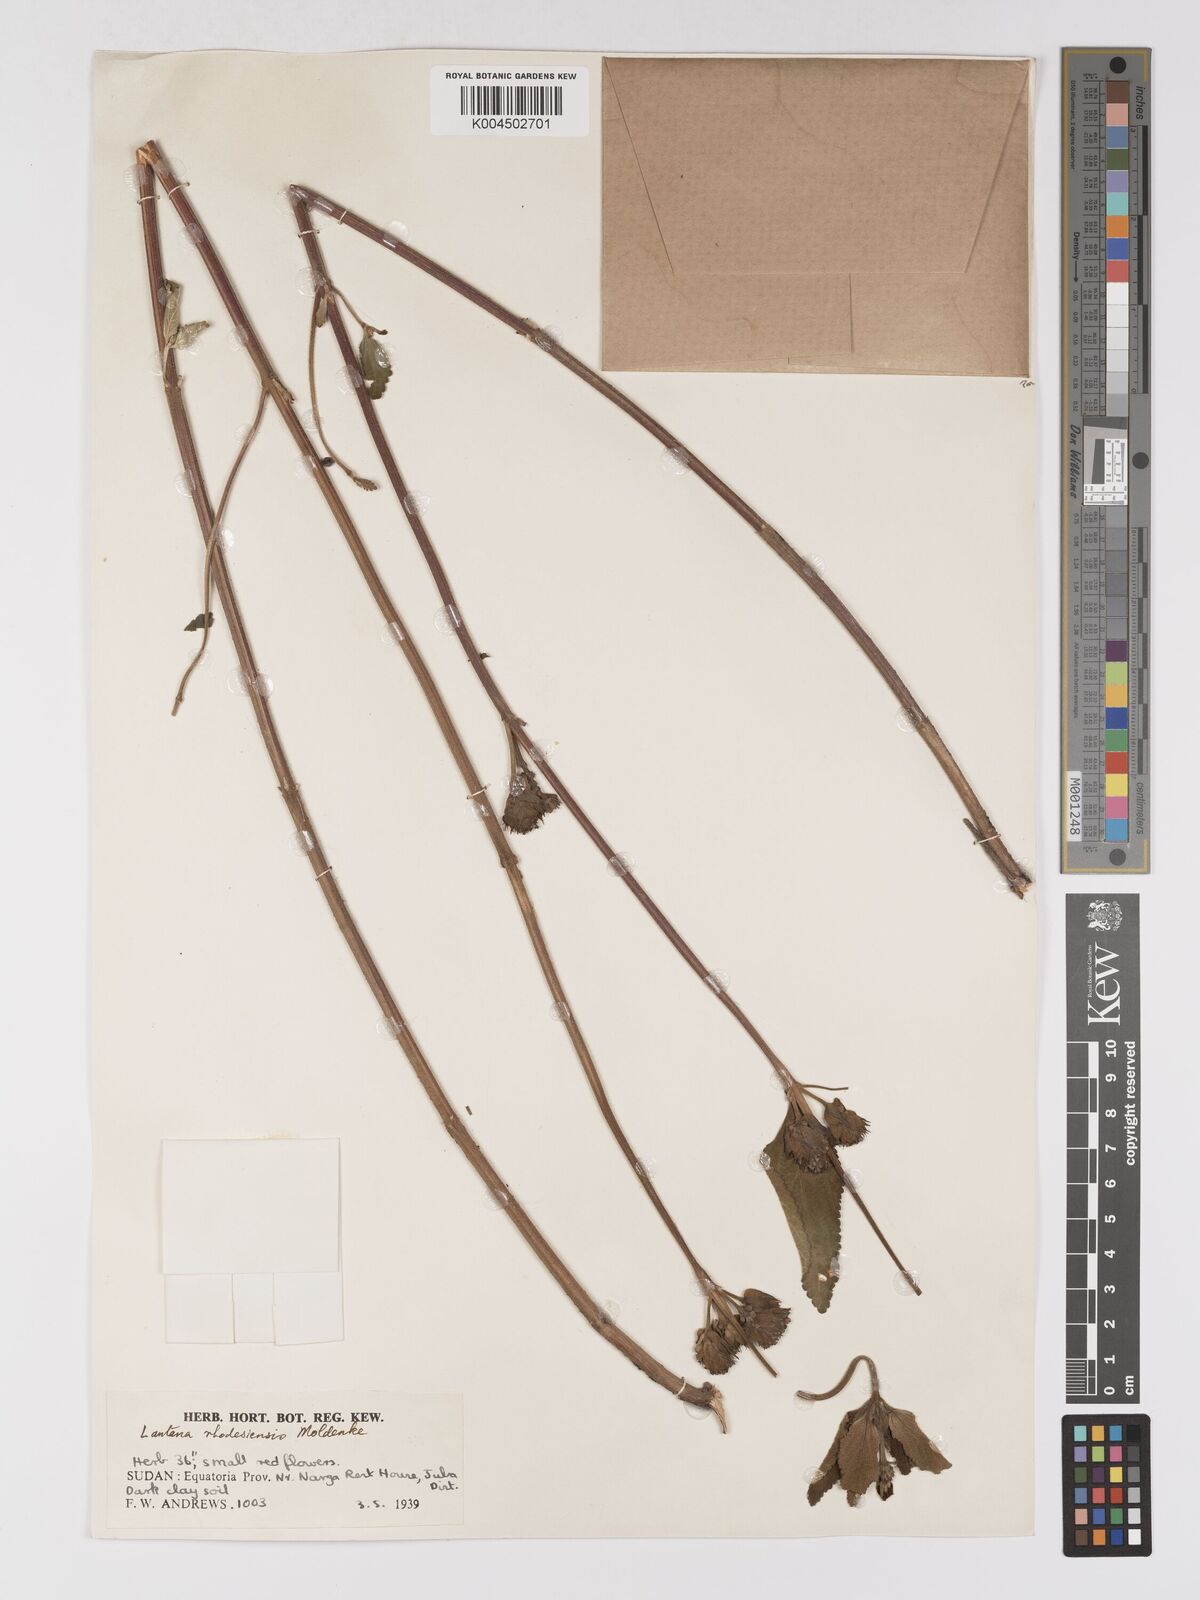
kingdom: Plantae
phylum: Tracheophyta
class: Magnoliopsida
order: Lamiales
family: Verbenaceae
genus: Lantana
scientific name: Lantana ukambensis
